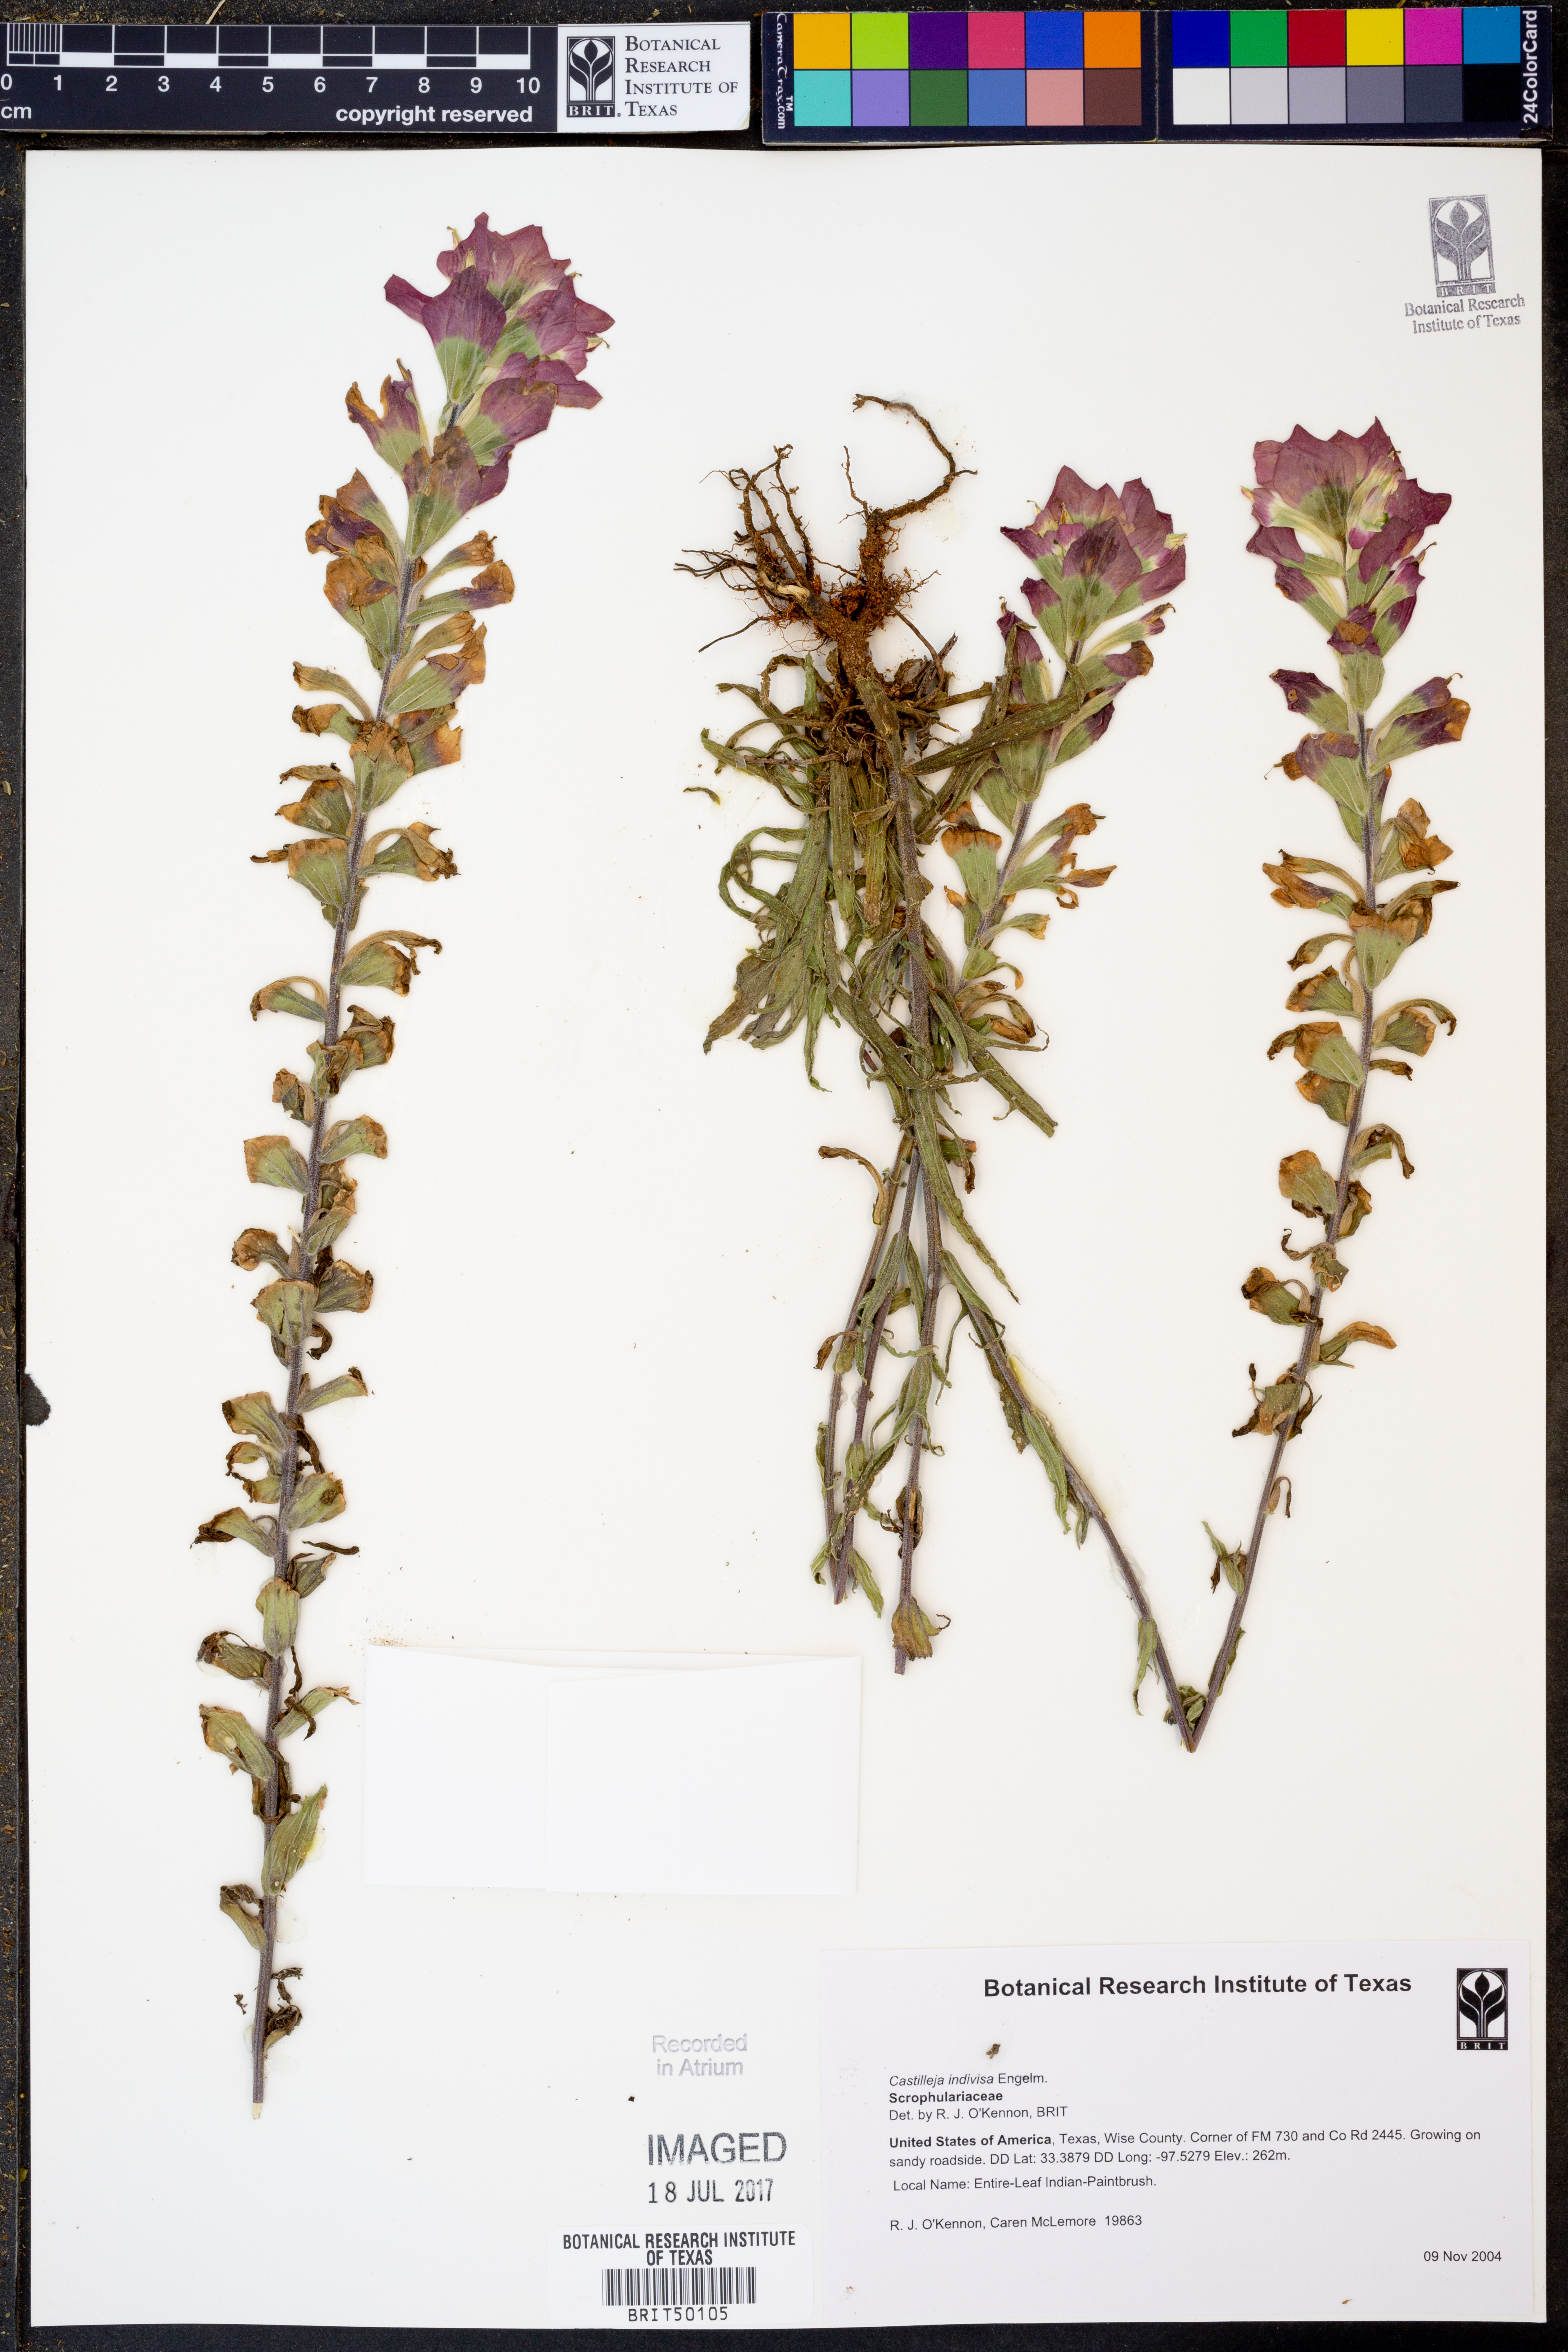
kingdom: Plantae
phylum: Tracheophyta
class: Magnoliopsida
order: Lamiales
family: Orobanchaceae
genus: Castilleja
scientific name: Castilleja indivisa
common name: Texas paintbrush
